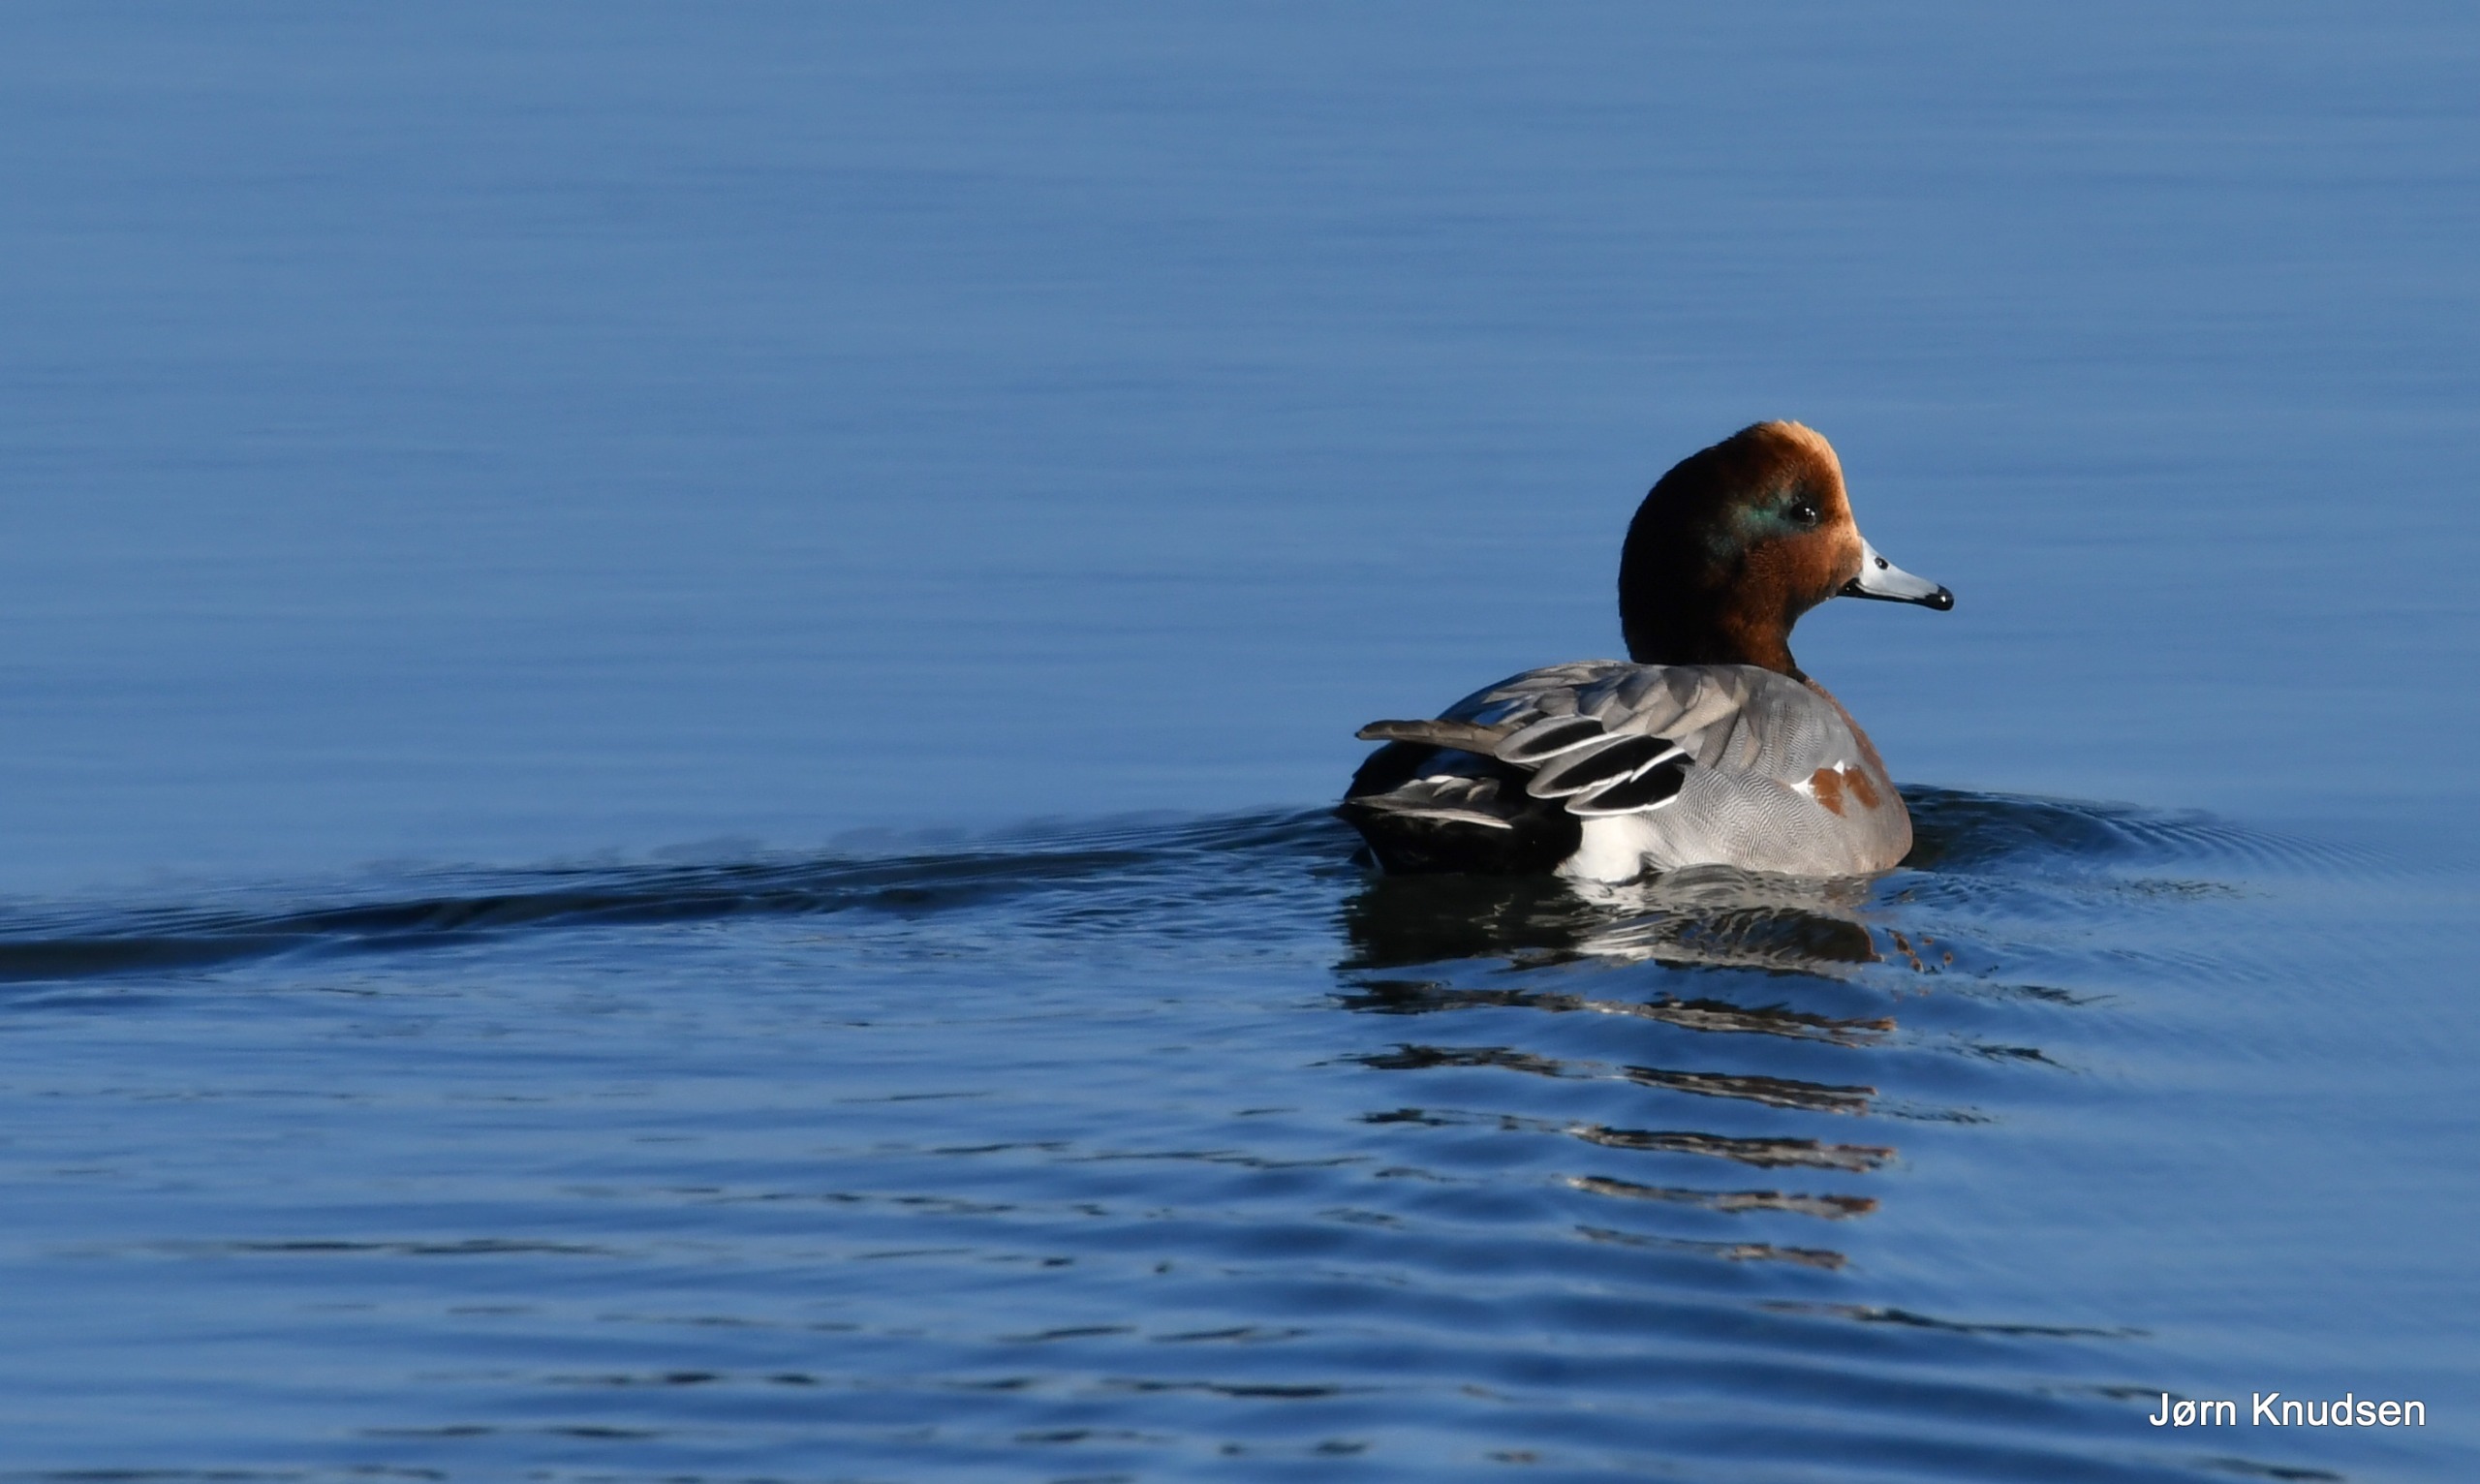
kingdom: Animalia
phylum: Chordata
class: Aves
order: Anseriformes
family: Anatidae
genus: Mareca
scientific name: Mareca penelope
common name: Pibeand
